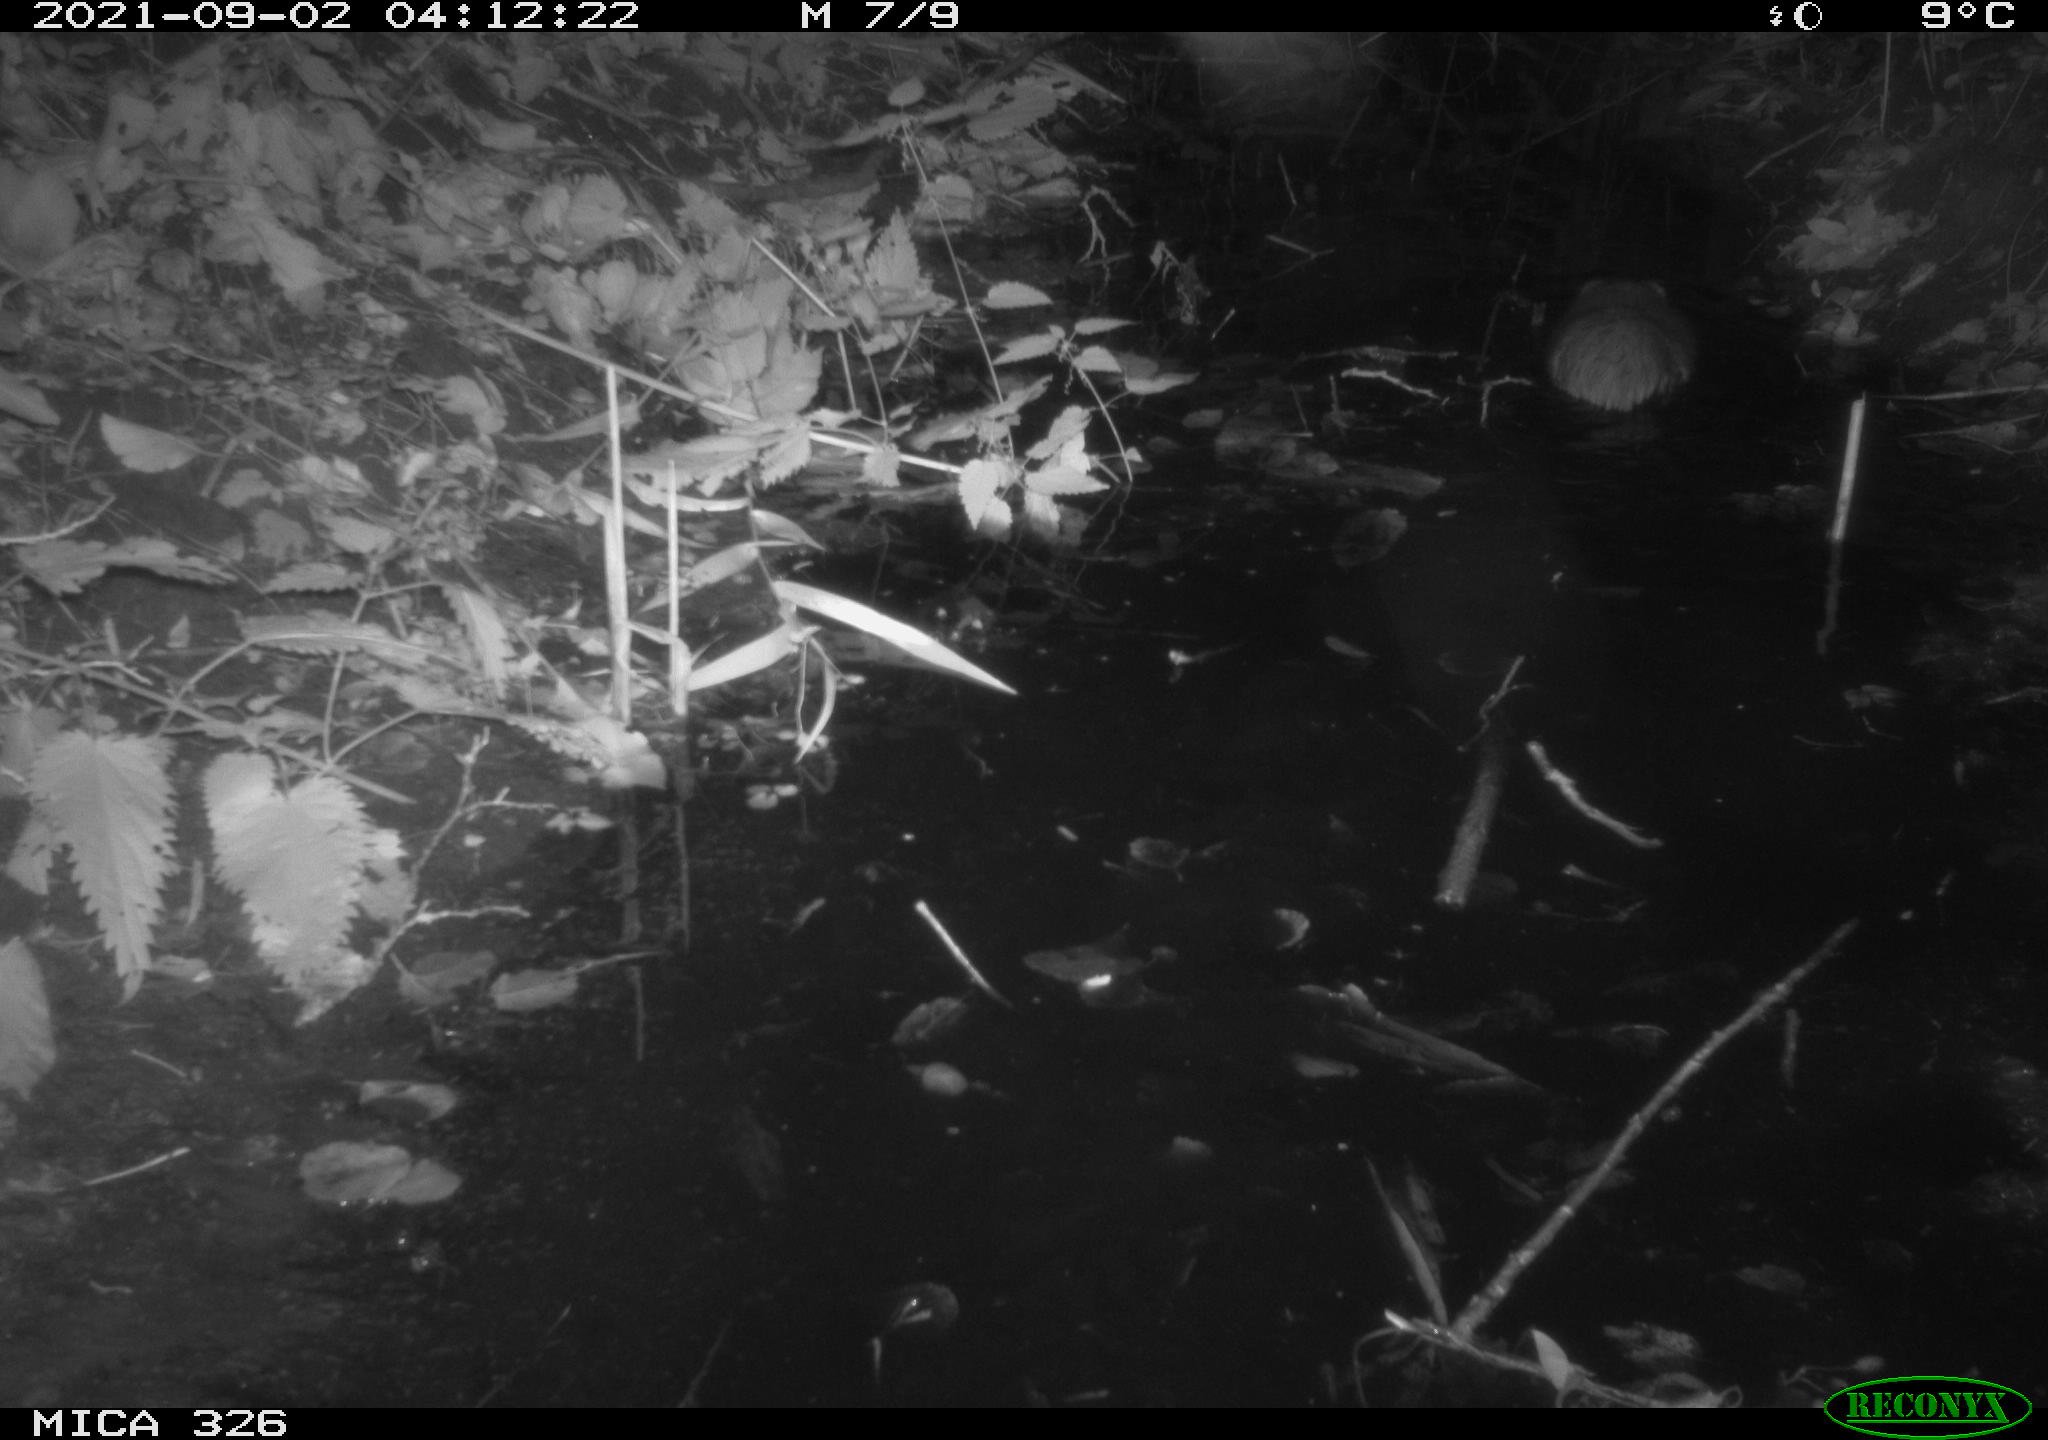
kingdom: Animalia
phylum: Chordata
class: Mammalia
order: Rodentia
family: Cricetidae
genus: Ondatra
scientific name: Ondatra zibethicus
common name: Muskrat
